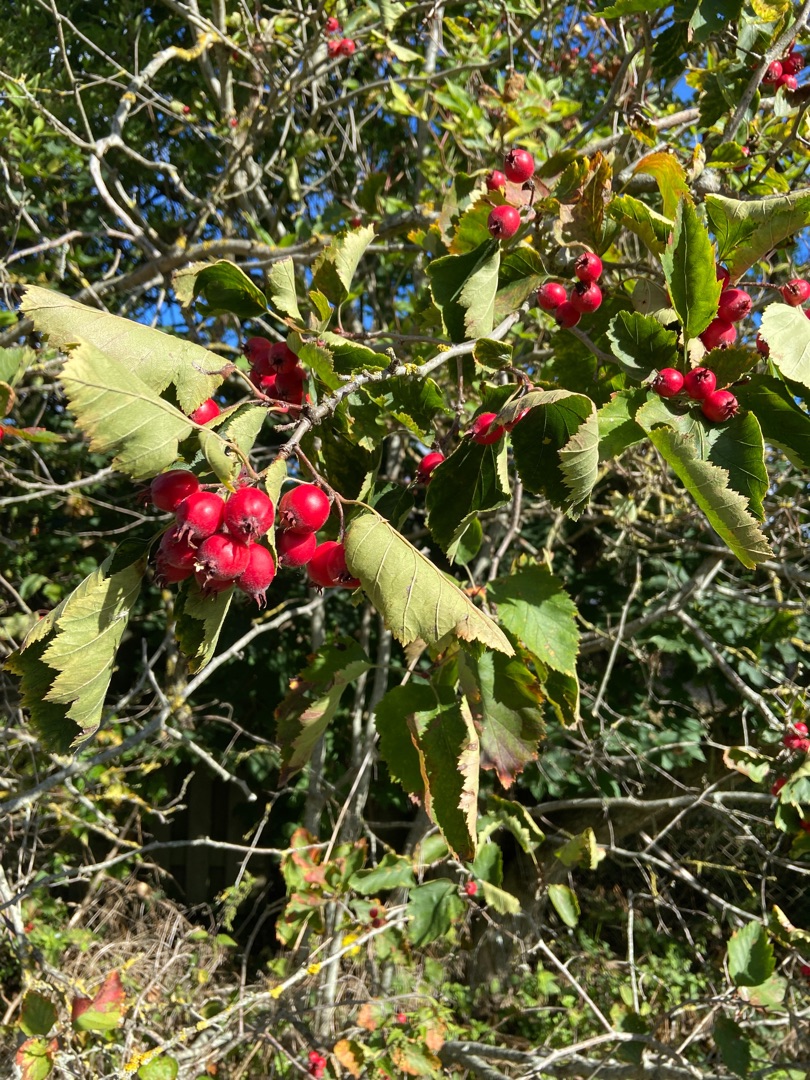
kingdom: Plantae
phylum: Tracheophyta
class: Magnoliopsida
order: Rosales
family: Rosaceae
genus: Crataegus
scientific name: Crataegus coccinea
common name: Skarlagentjørn
